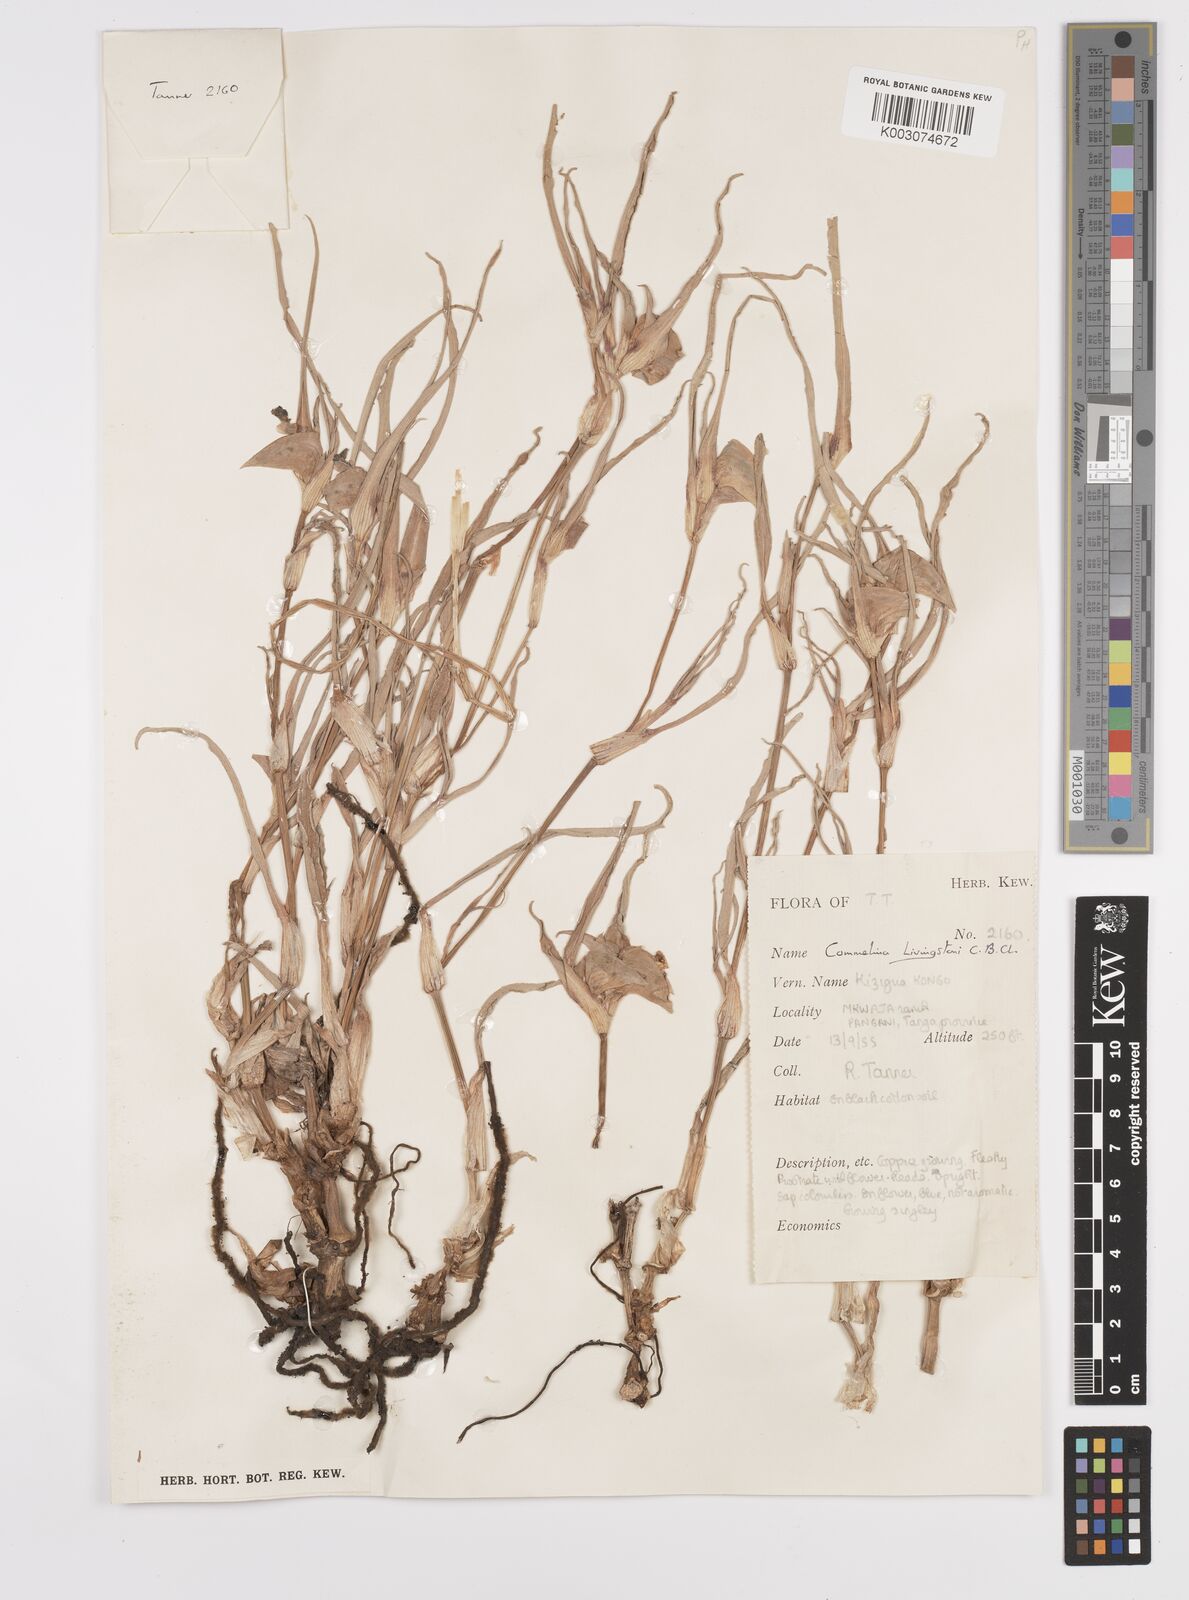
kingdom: Plantae
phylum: Tracheophyta
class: Liliopsida
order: Commelinales
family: Commelinaceae
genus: Commelina
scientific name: Commelina erecta
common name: Blousel blommetjie
